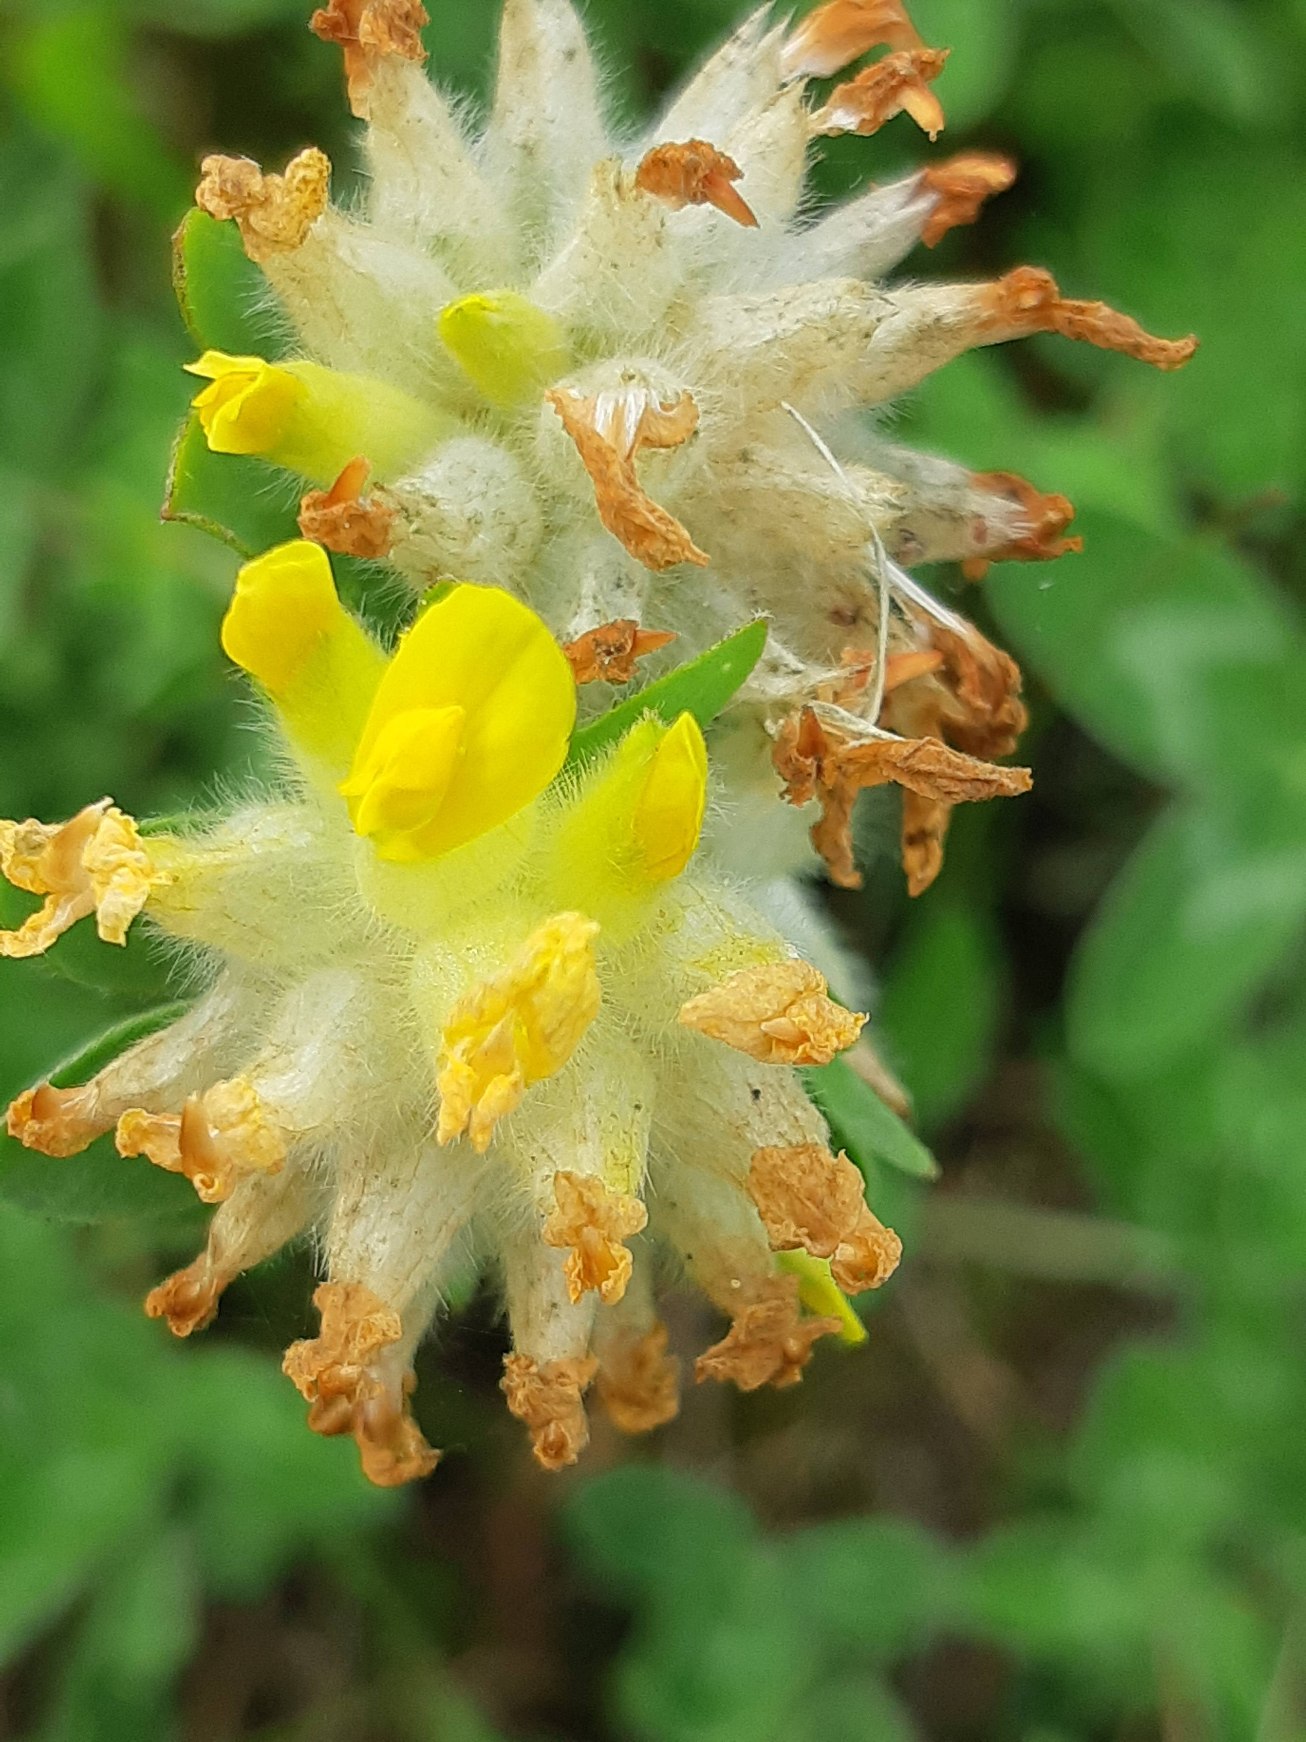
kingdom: Plantae
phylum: Tracheophyta
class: Magnoliopsida
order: Fabales
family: Fabaceae
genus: Anthyllis
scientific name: Anthyllis vulneraria
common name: Rundbælg
